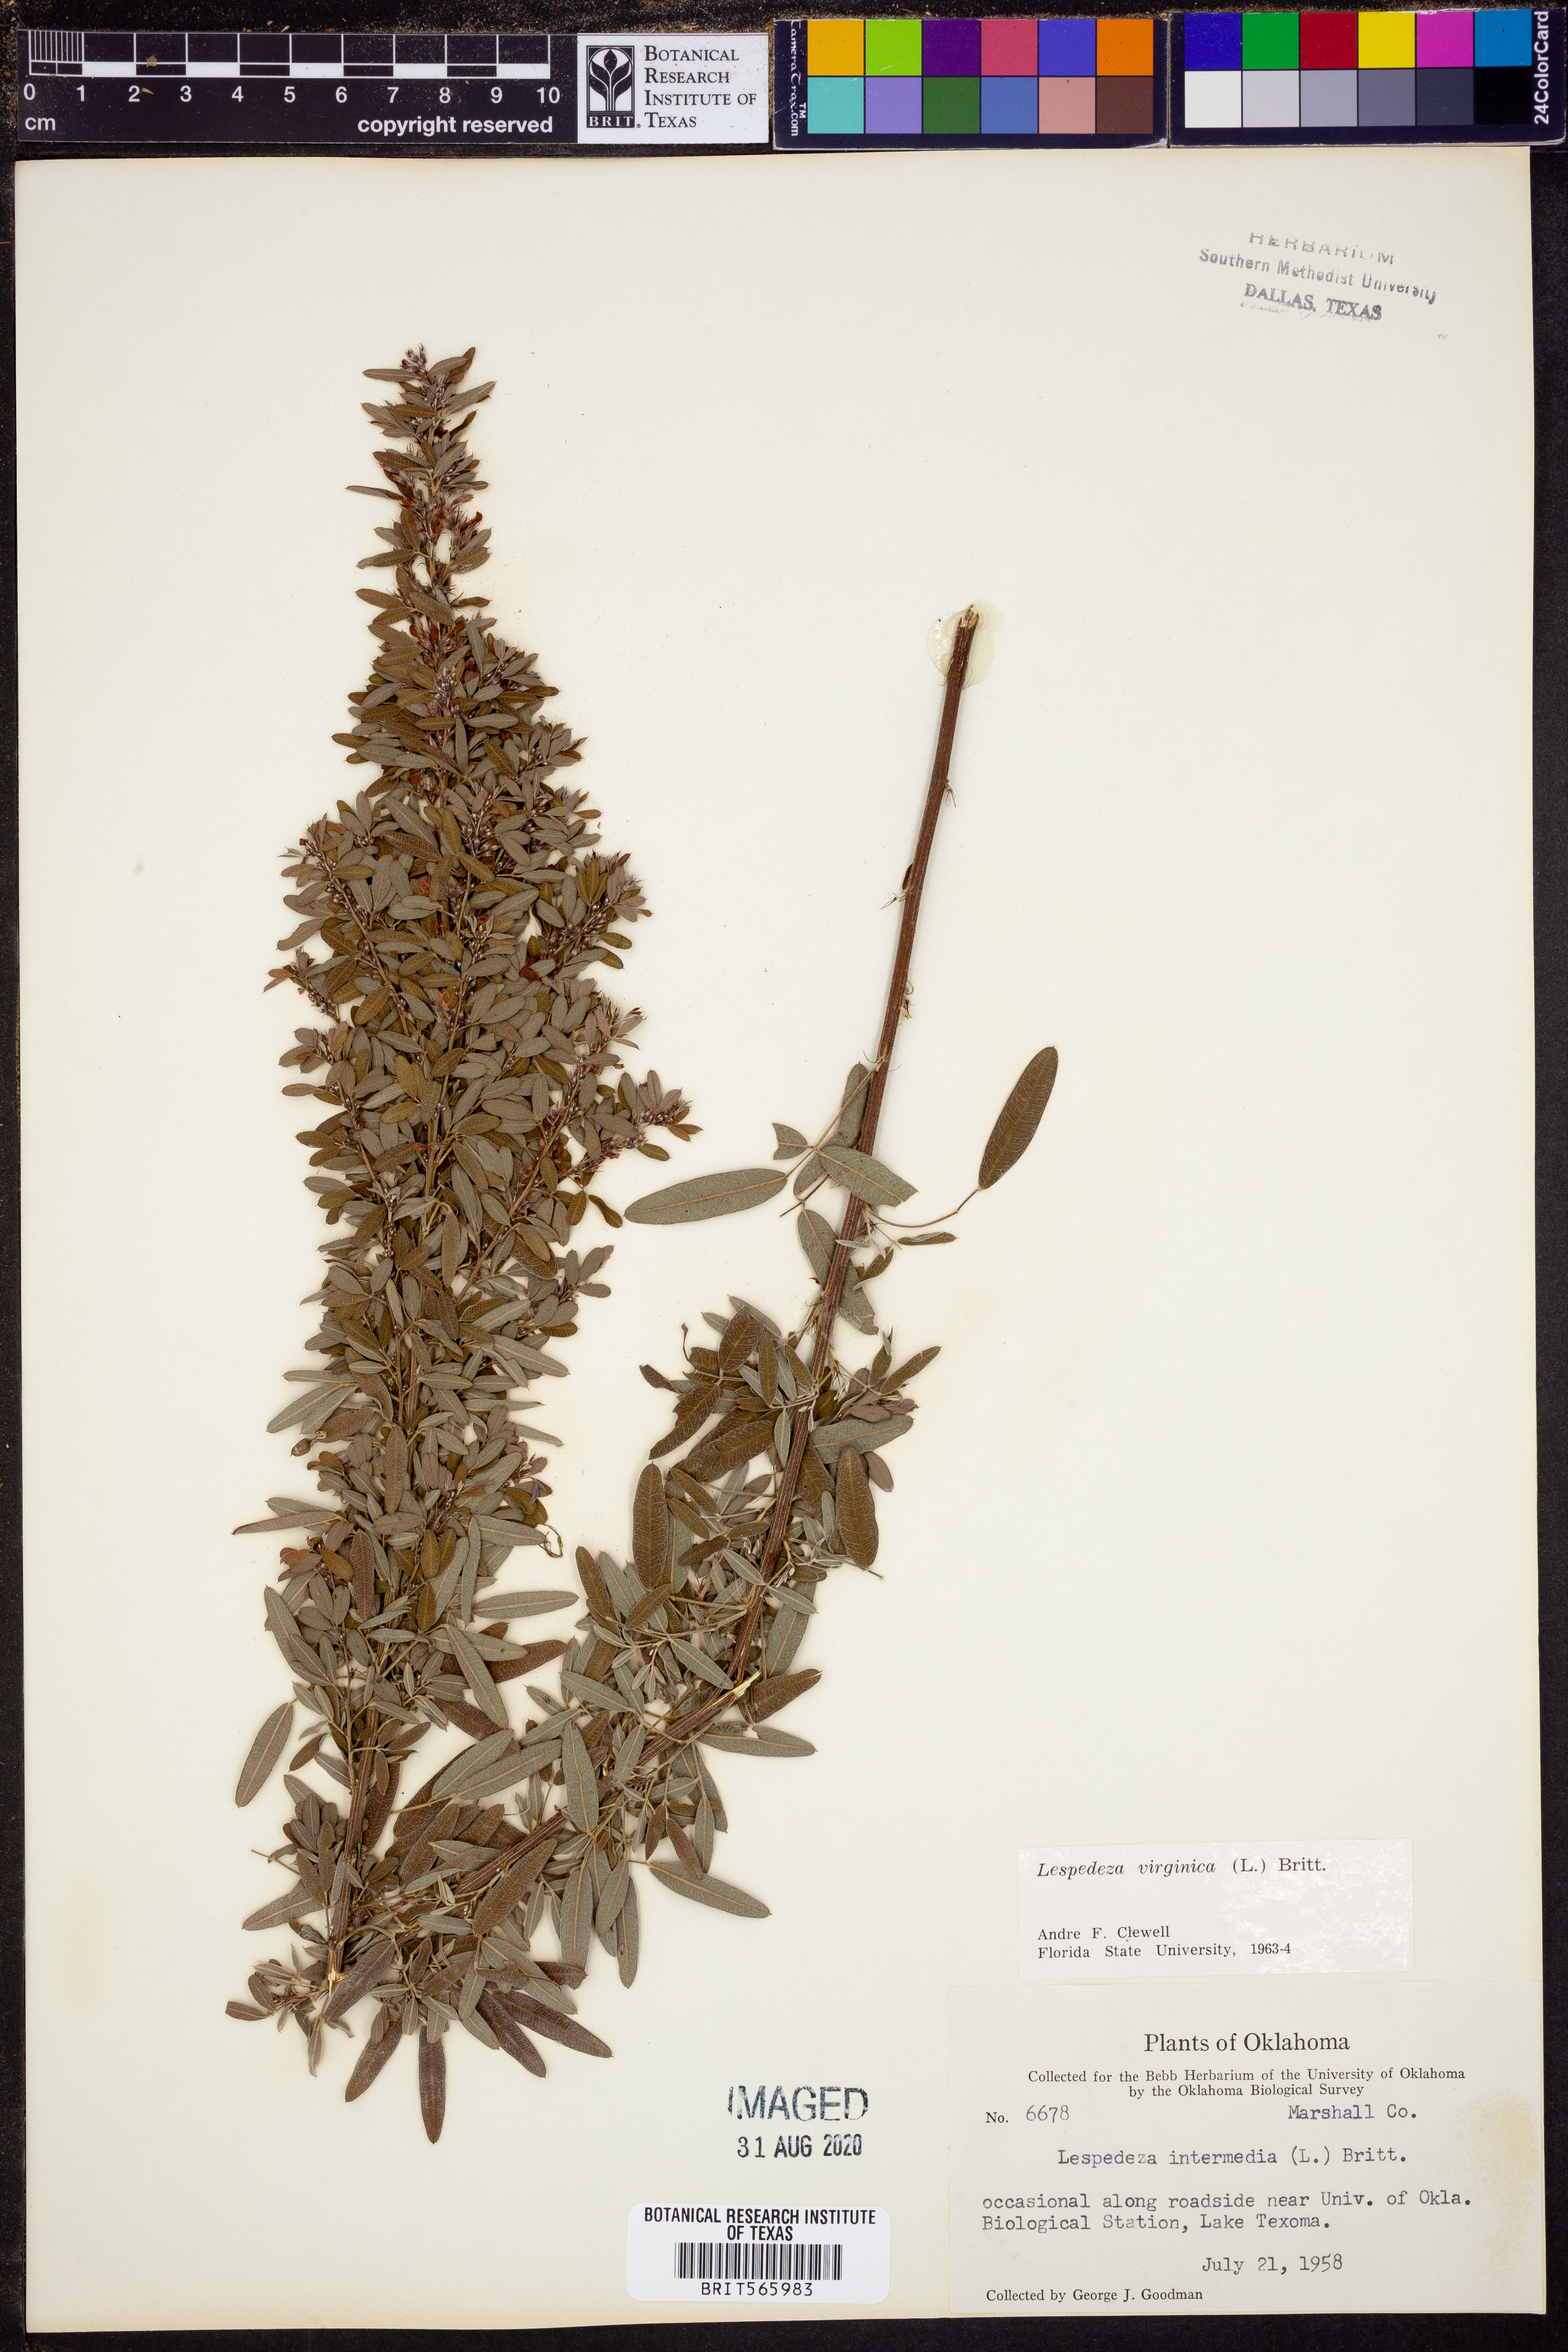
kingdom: Plantae
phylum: Tracheophyta
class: Magnoliopsida
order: Fabales
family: Fabaceae
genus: Lespedeza
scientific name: Lespedeza virginica
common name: Slender bush-clover
